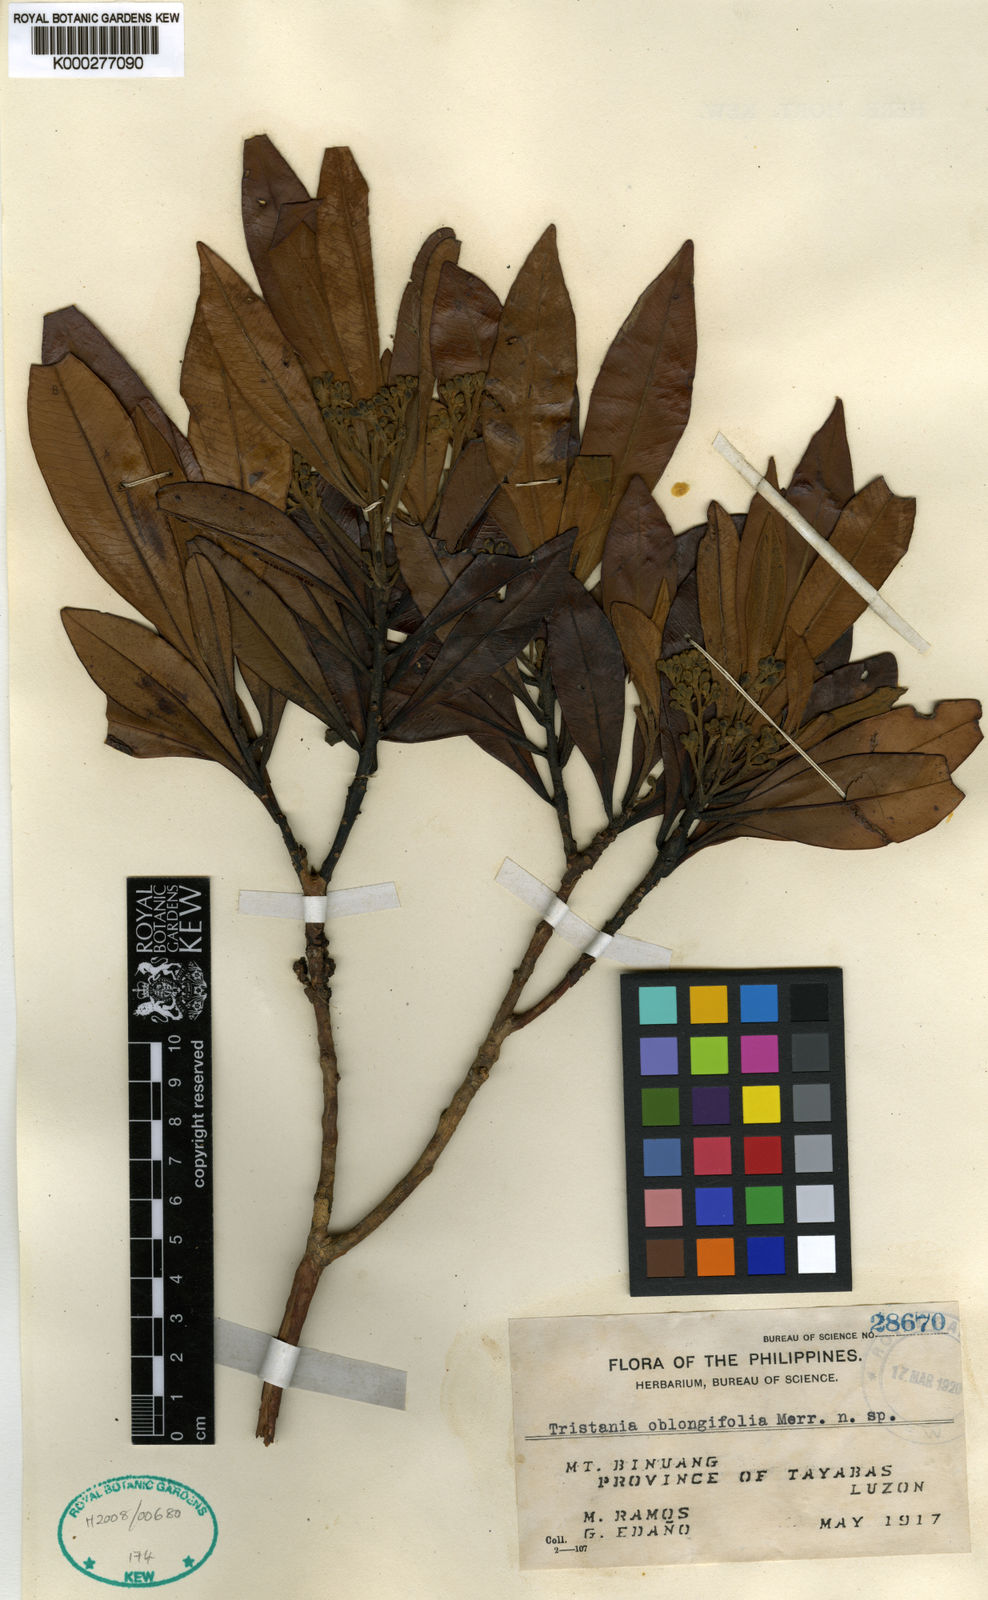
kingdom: Plantae
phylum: Tracheophyta
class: Magnoliopsida
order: Myrtales
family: Myrtaceae
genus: Tristaniopsis
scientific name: Tristaniopsis oblongifolia
